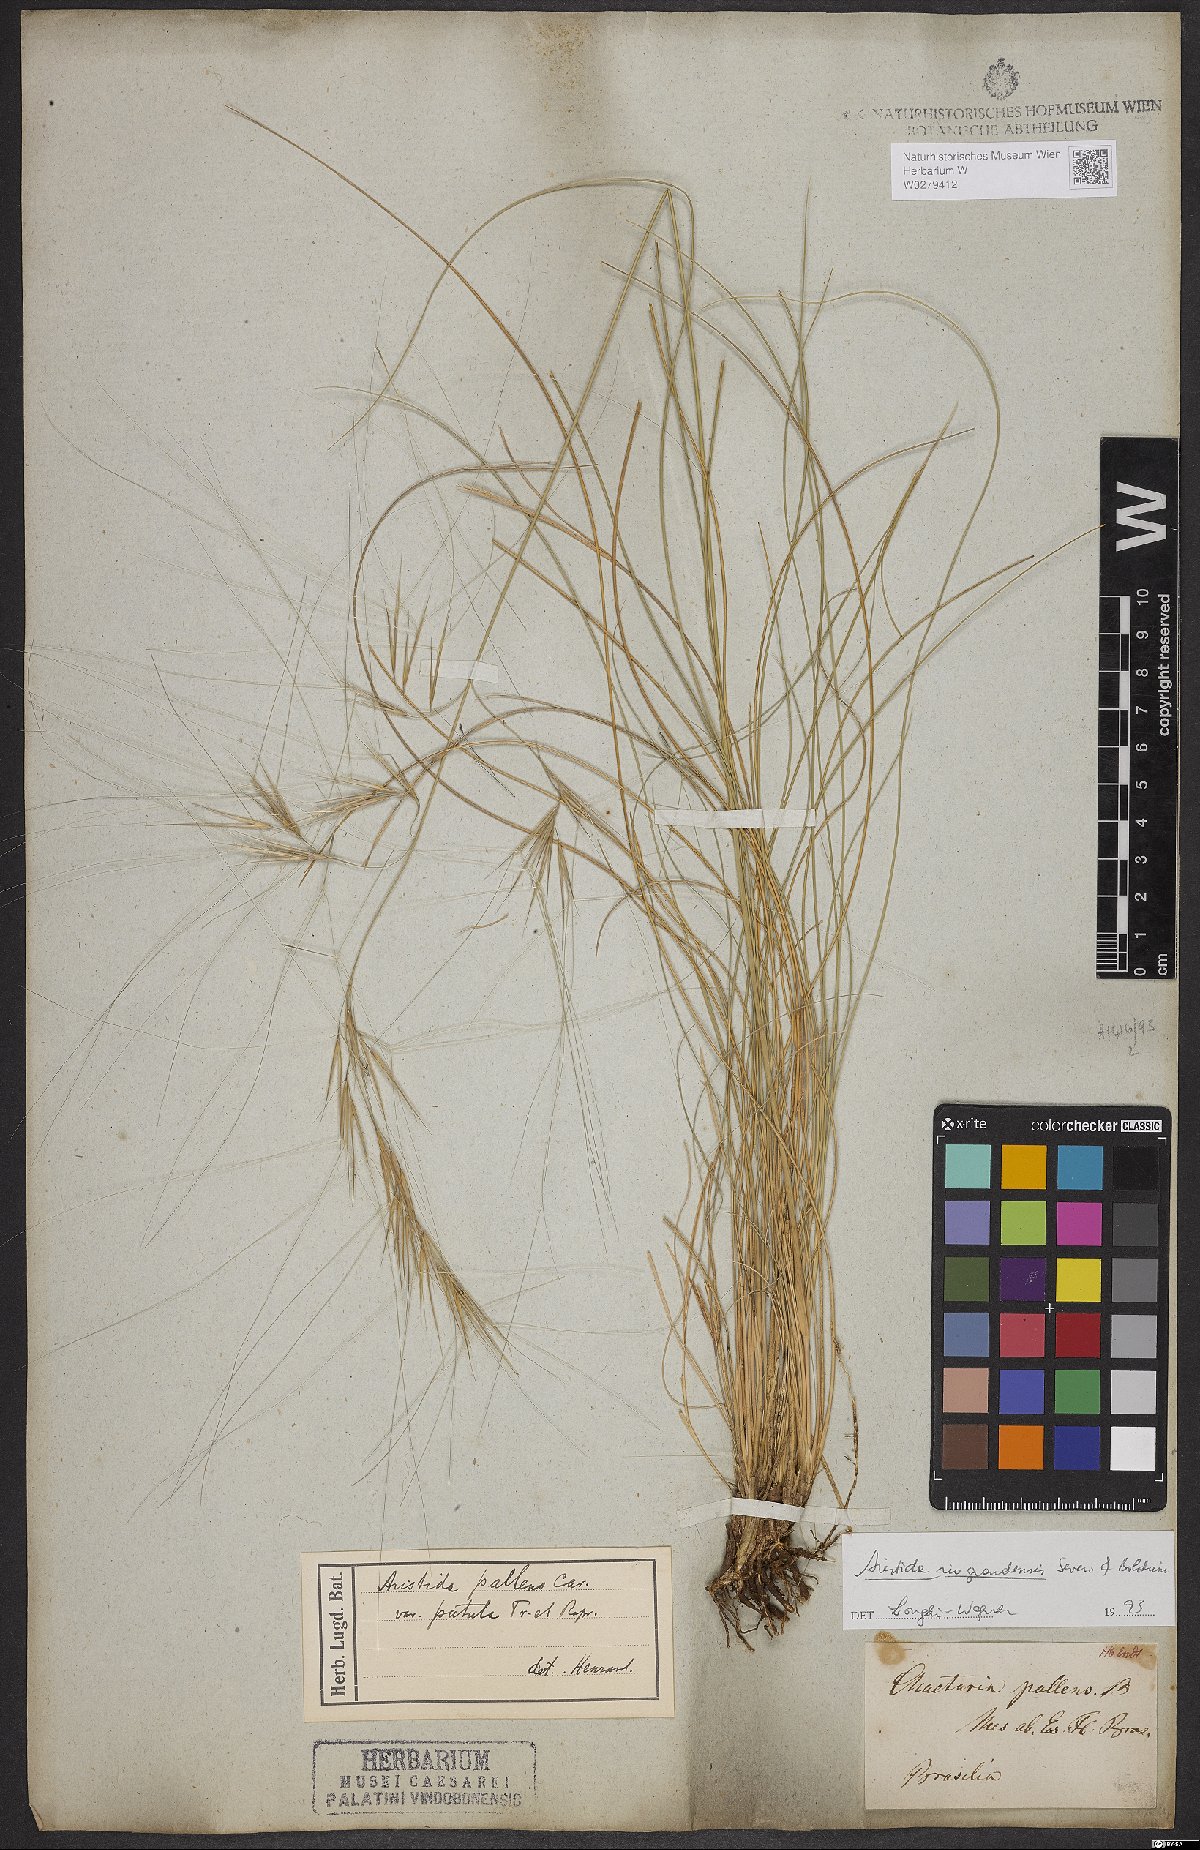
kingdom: Plantae
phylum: Tracheophyta
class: Liliopsida
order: Poales
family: Poaceae
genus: Aristida
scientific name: Aristida riograndensis
